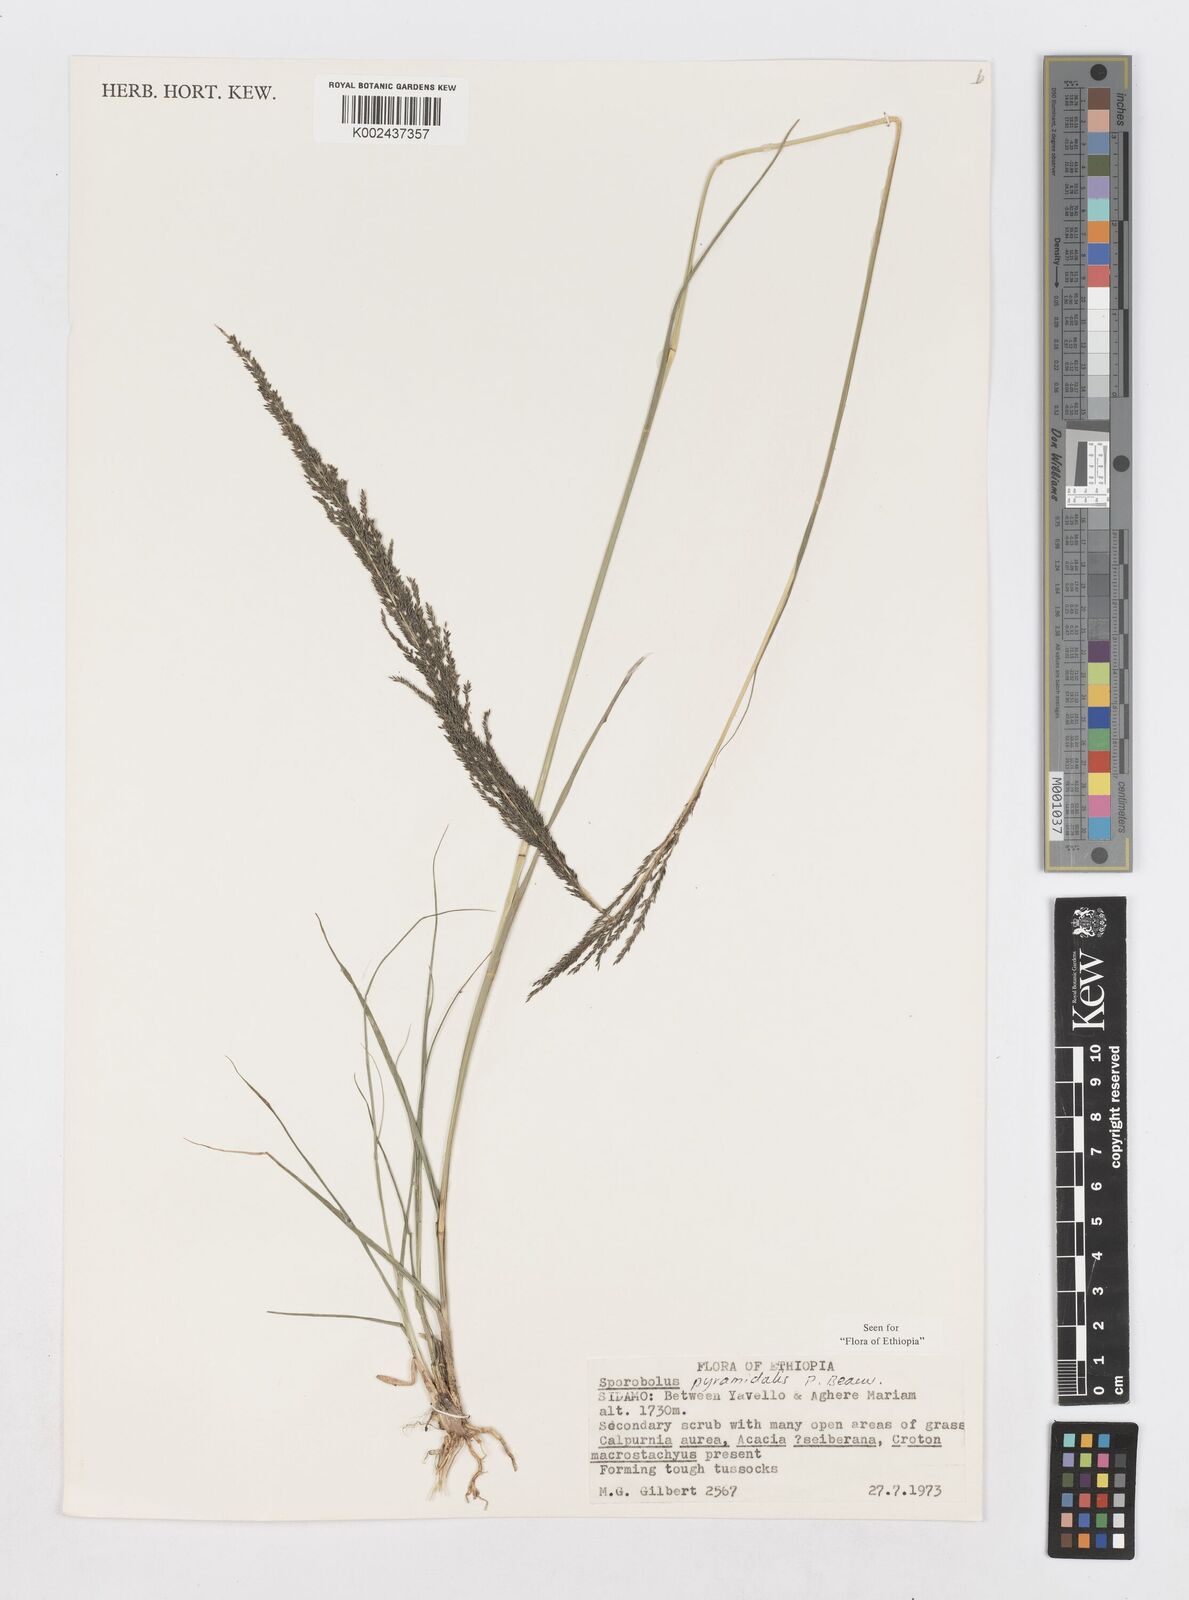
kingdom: Plantae
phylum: Tracheophyta
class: Liliopsida
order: Poales
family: Poaceae
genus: Sporobolus
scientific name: Sporobolus pyramidalis
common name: West indian dropseed
